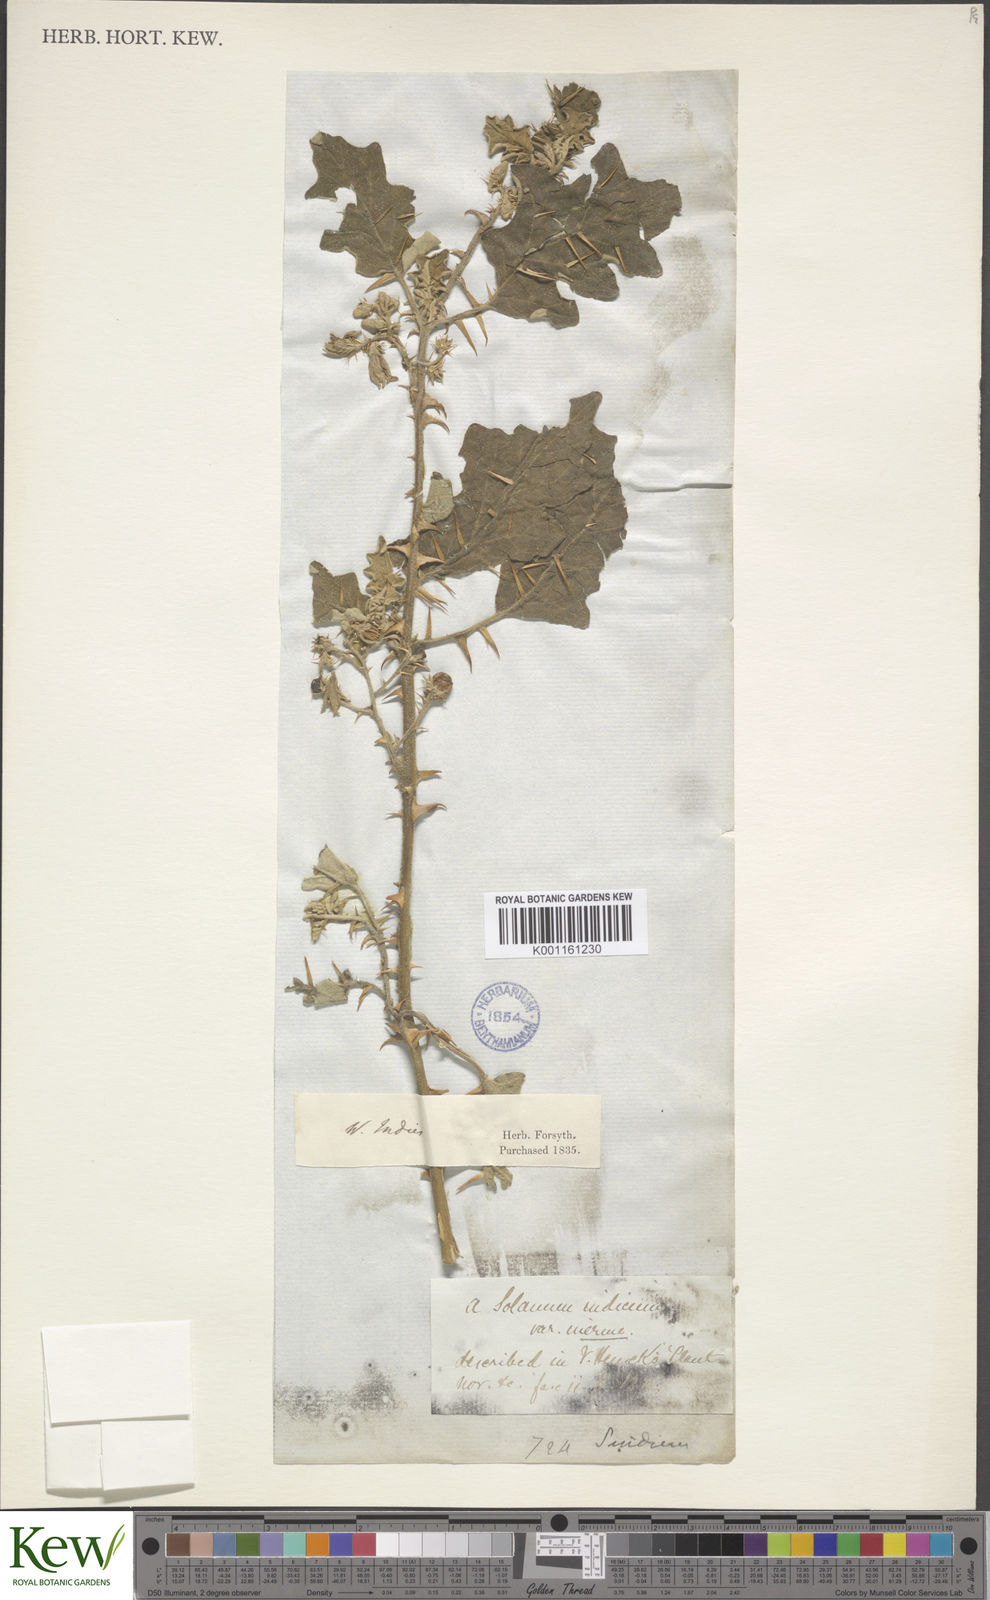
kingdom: Plantae
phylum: Tracheophyta
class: Magnoliopsida
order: Solanales
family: Solanaceae
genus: Solanum
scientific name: Solanum bahamense
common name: Canker-berry
